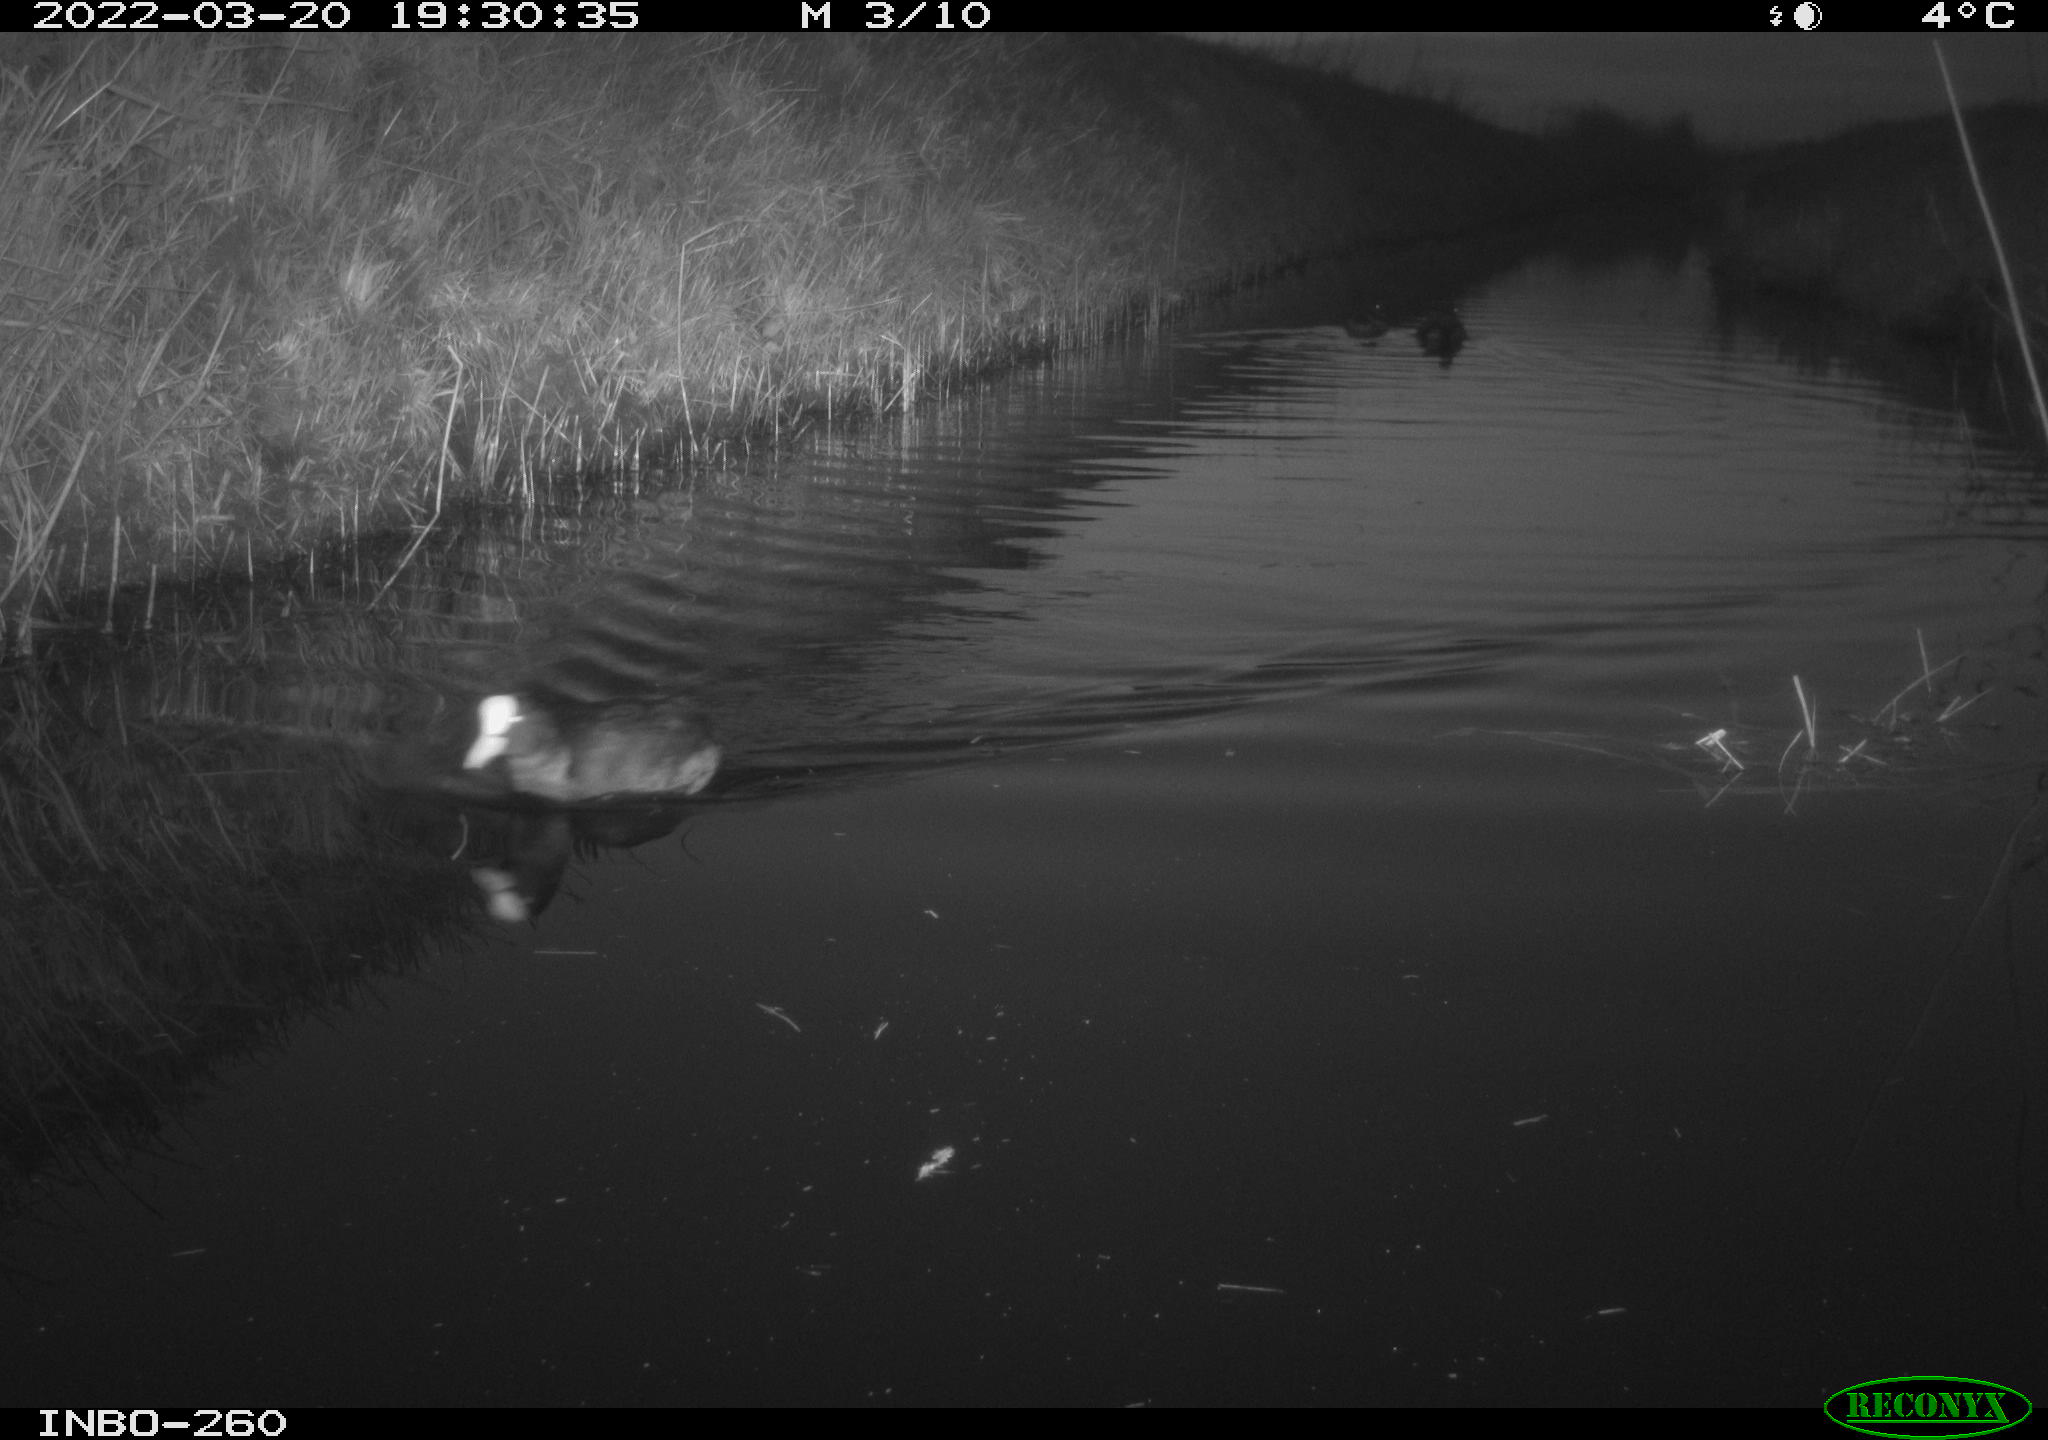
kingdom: Animalia
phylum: Chordata
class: Aves
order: Gruiformes
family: Rallidae
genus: Fulica
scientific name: Fulica atra
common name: Eurasian coot
